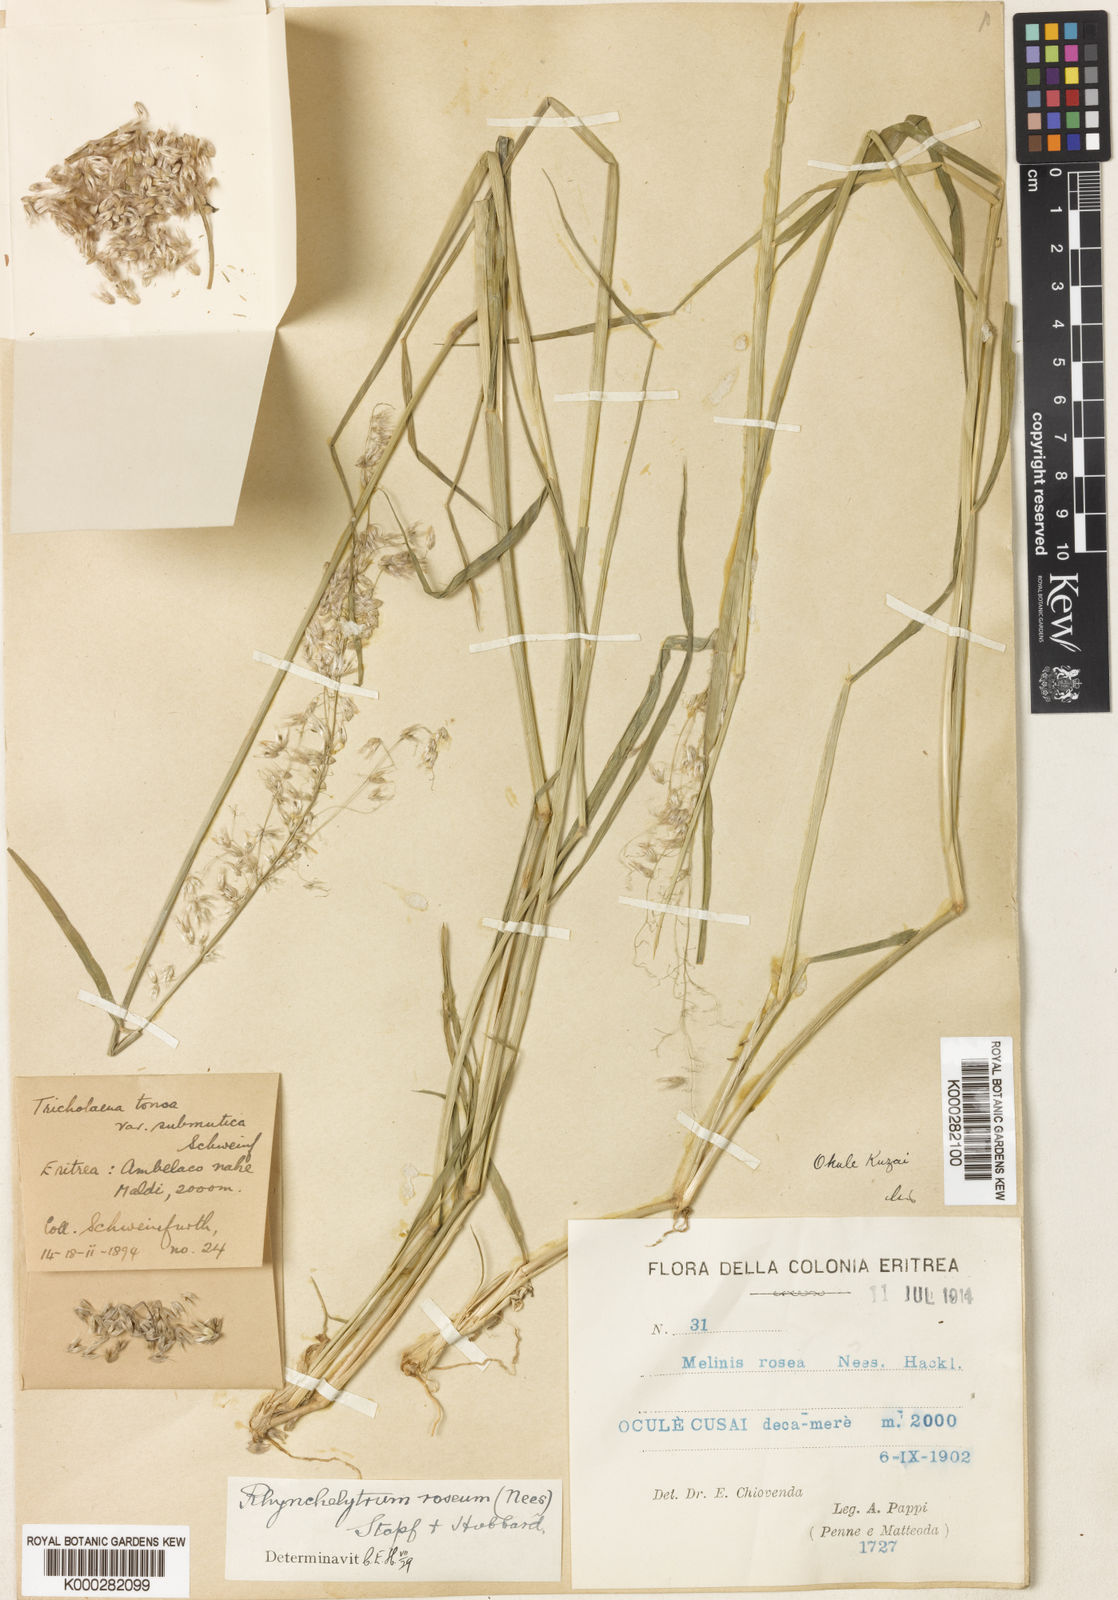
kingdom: Plantae
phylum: Tracheophyta
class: Liliopsida
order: Poales
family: Poaceae
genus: Melinis
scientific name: Melinis repens
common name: Rose natal grass
